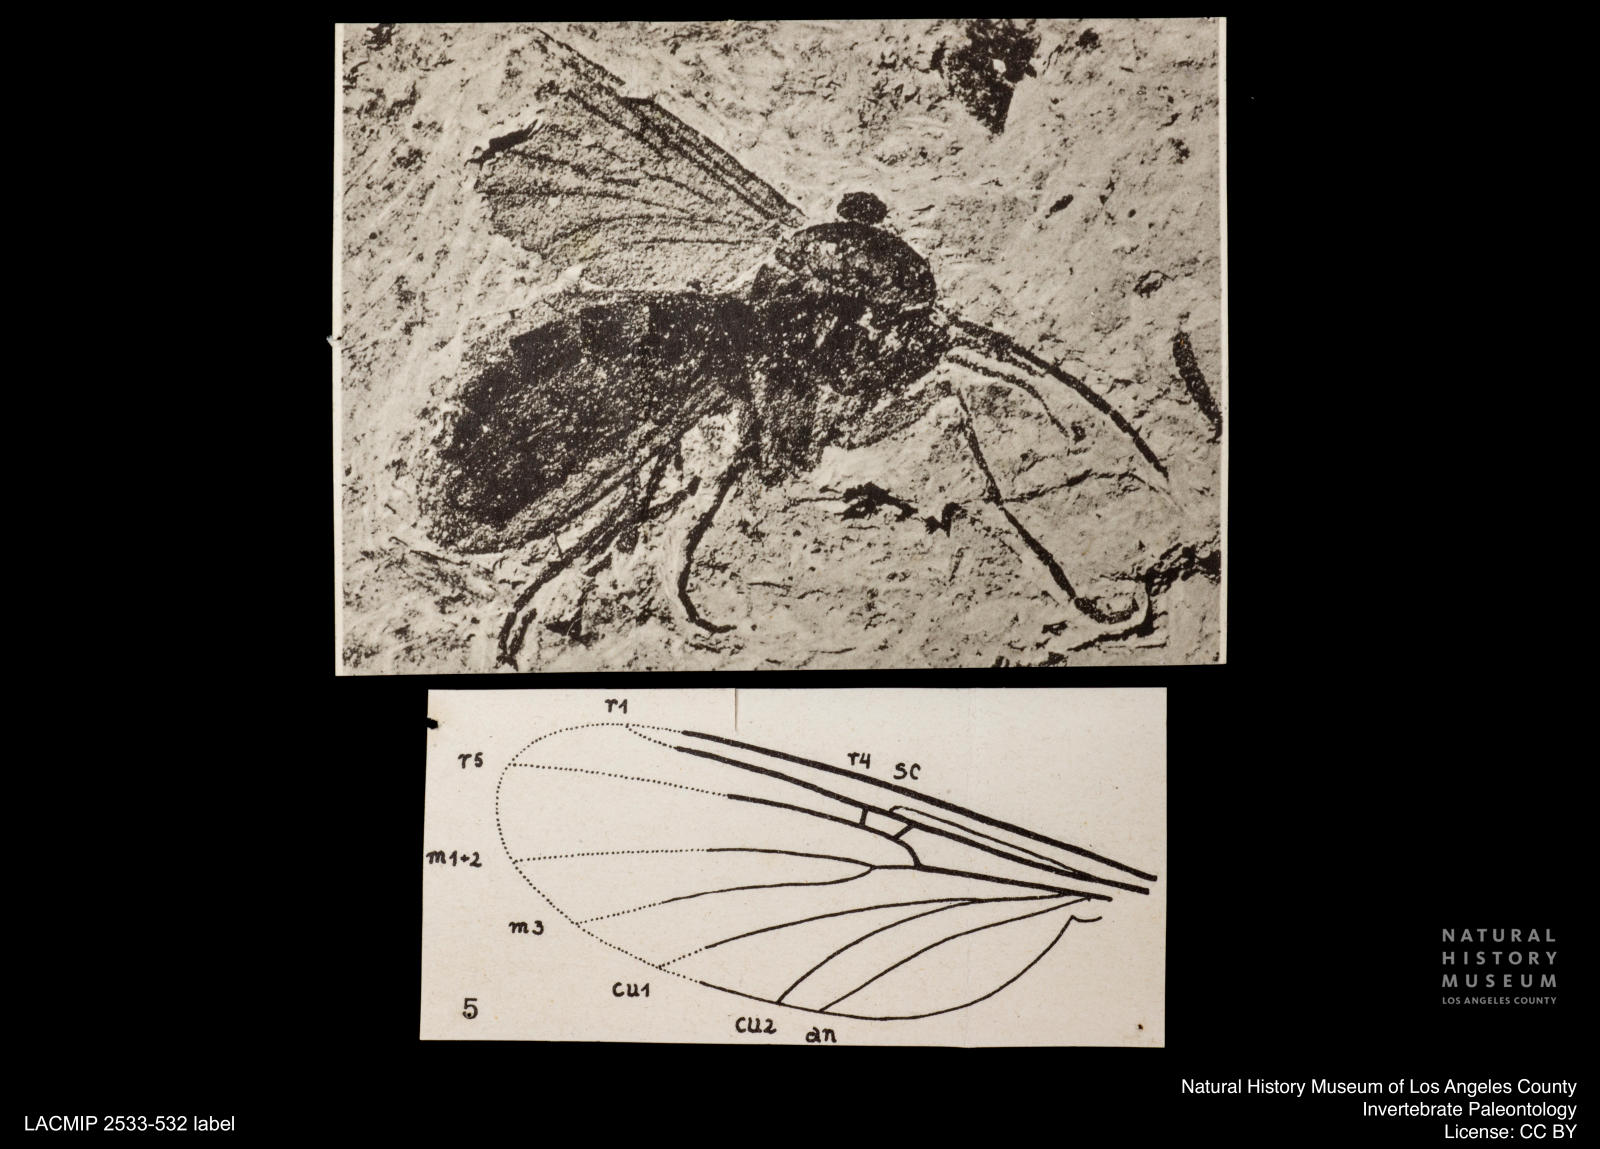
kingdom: Animalia
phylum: Arthropoda
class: Insecta
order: Diptera
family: Mycetophilidae
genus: Mycomya
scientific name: Mycomya Mycomyia unicolor
